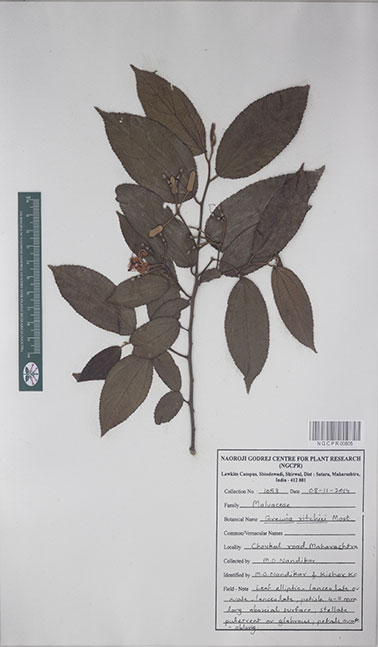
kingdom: Plantae
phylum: Tracheophyta
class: Magnoliopsida
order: Malvales
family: Malvaceae
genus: Grewia
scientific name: Grewia ritchiei
